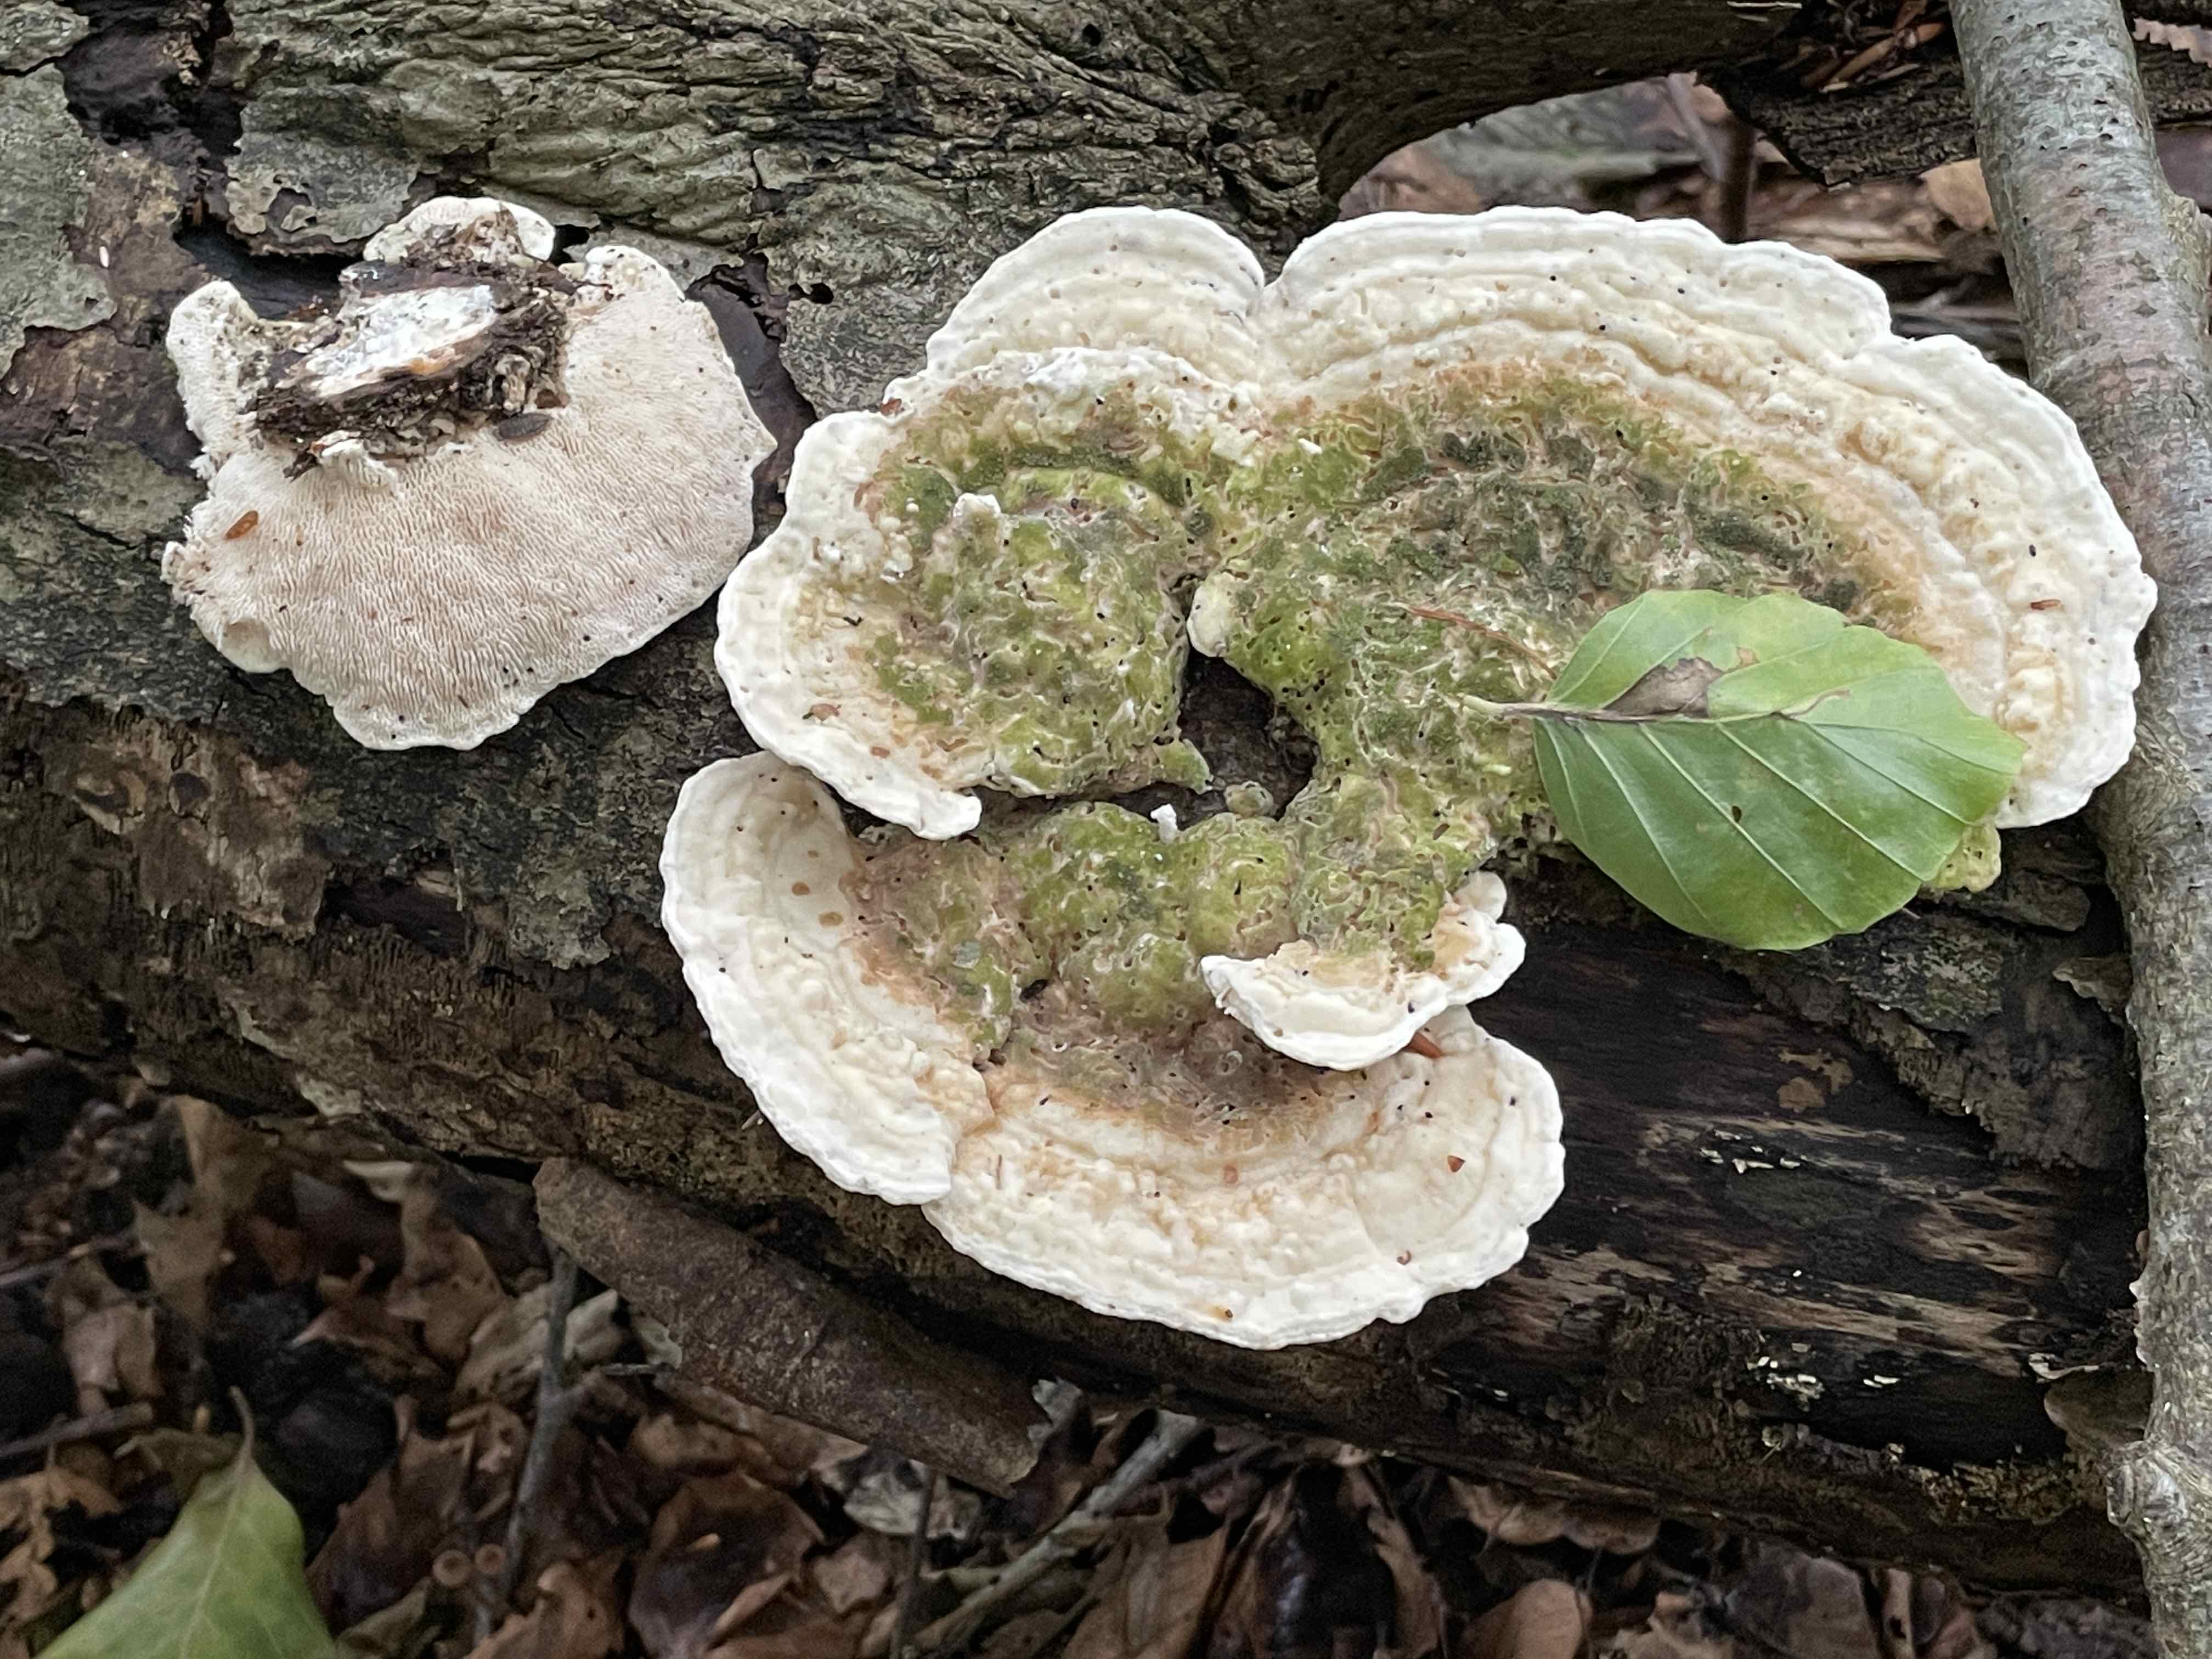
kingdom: Fungi
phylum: Basidiomycota
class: Agaricomycetes
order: Polyporales
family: Polyporaceae
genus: Trametes
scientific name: Trametes gibbosa
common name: puklet læderporesvamp
